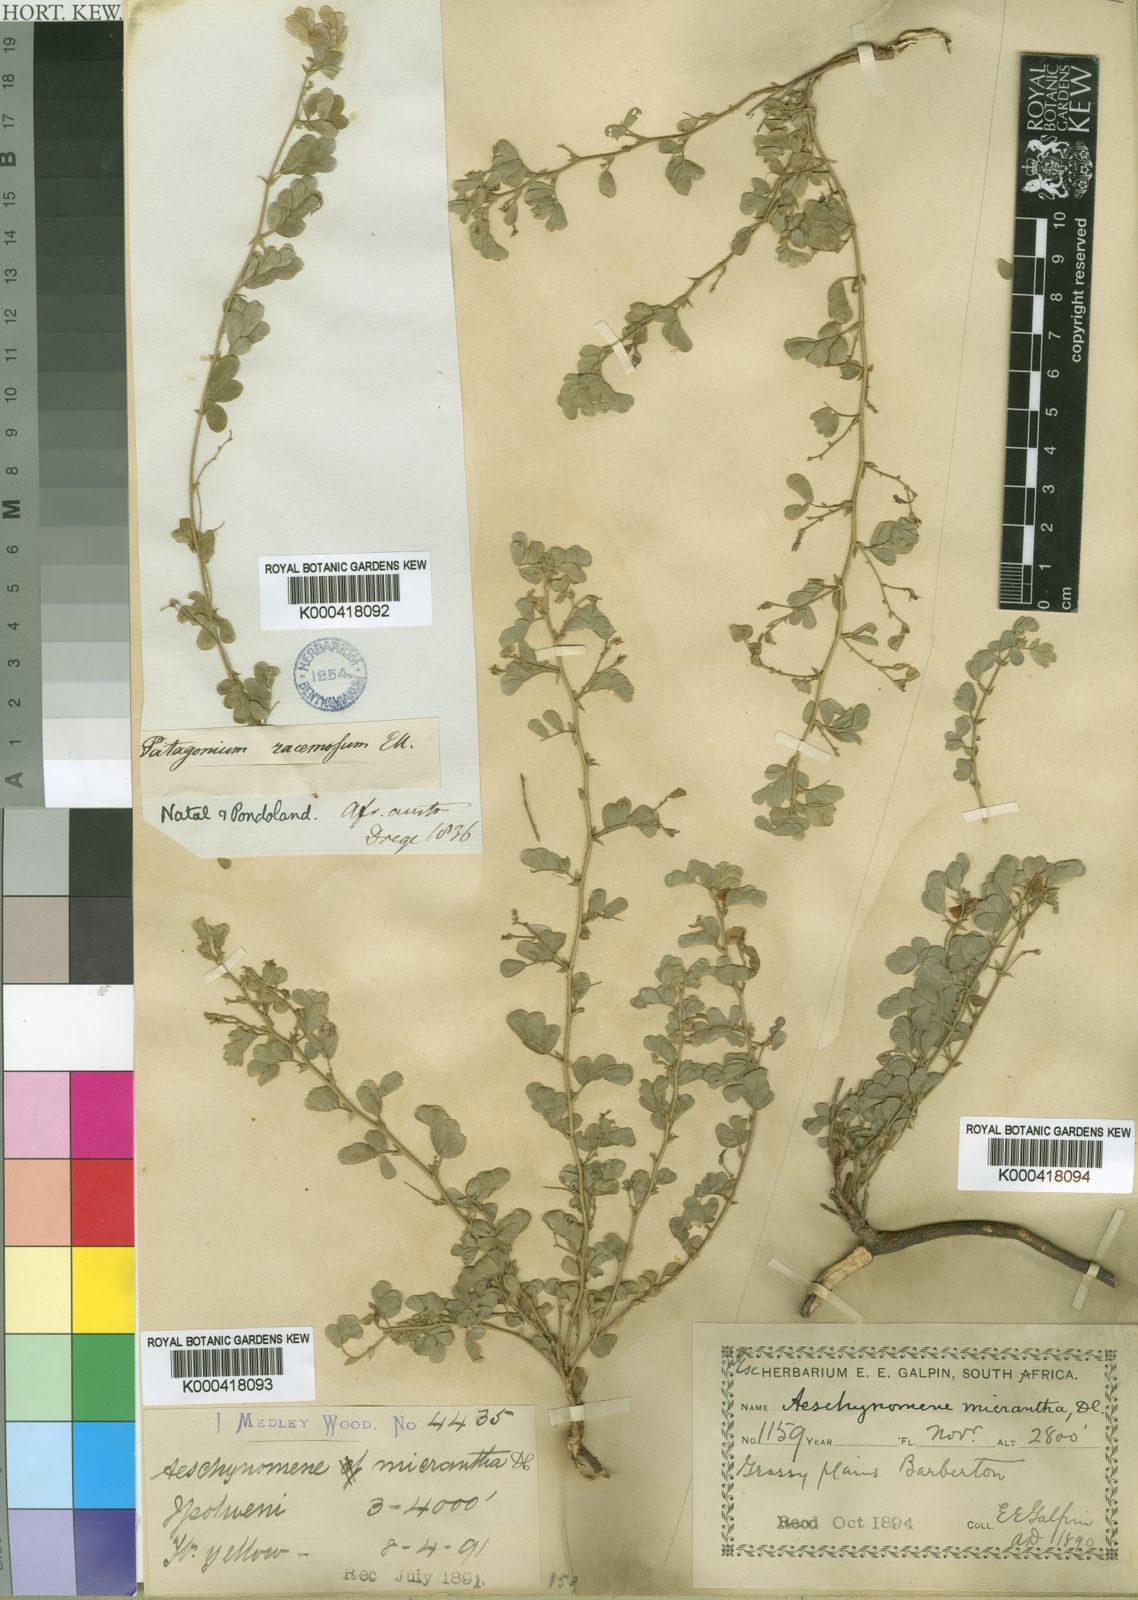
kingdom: Plantae
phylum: Tracheophyta
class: Magnoliopsida
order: Fabales
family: Fabaceae
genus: Aeschynomene
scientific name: Aeschynomene brevifolia
